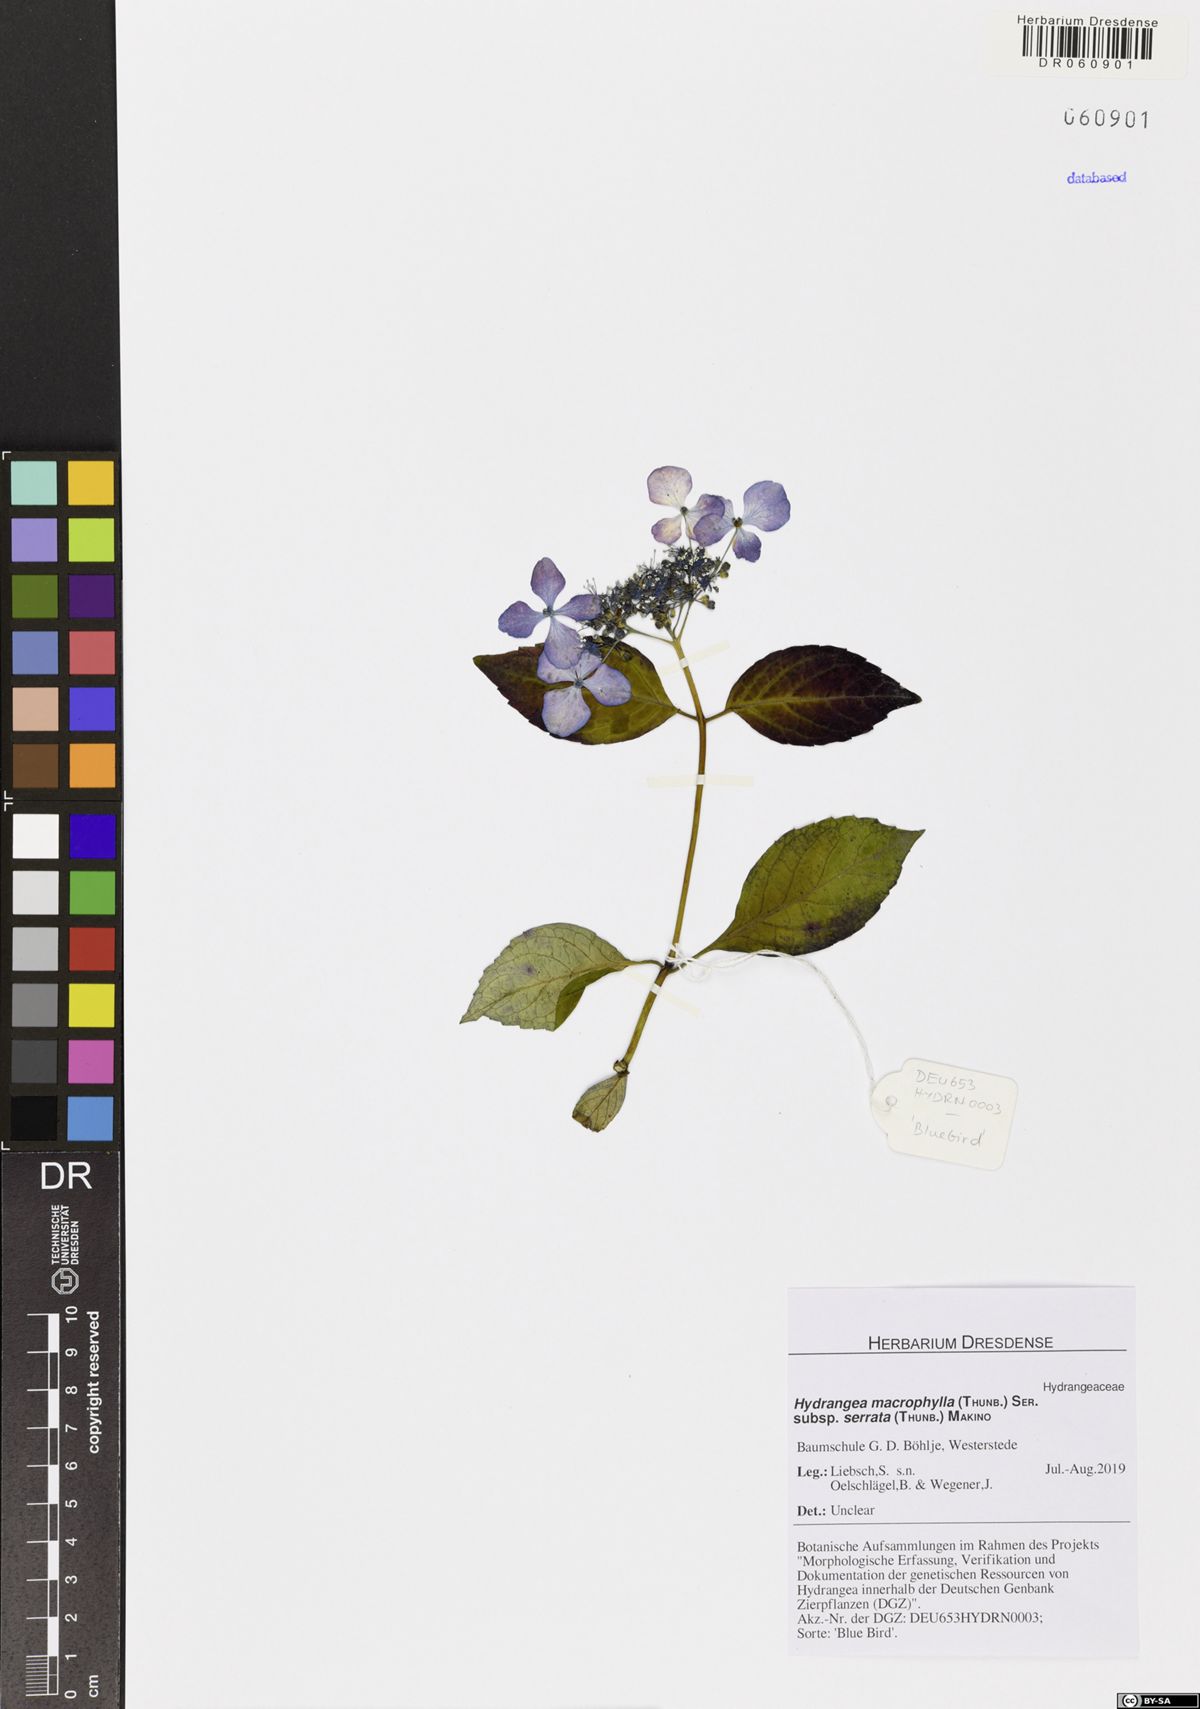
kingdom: Plantae
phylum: Tracheophyta
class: Magnoliopsida
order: Cornales
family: Hydrangeaceae
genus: Hydrangea
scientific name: Hydrangea serrata
